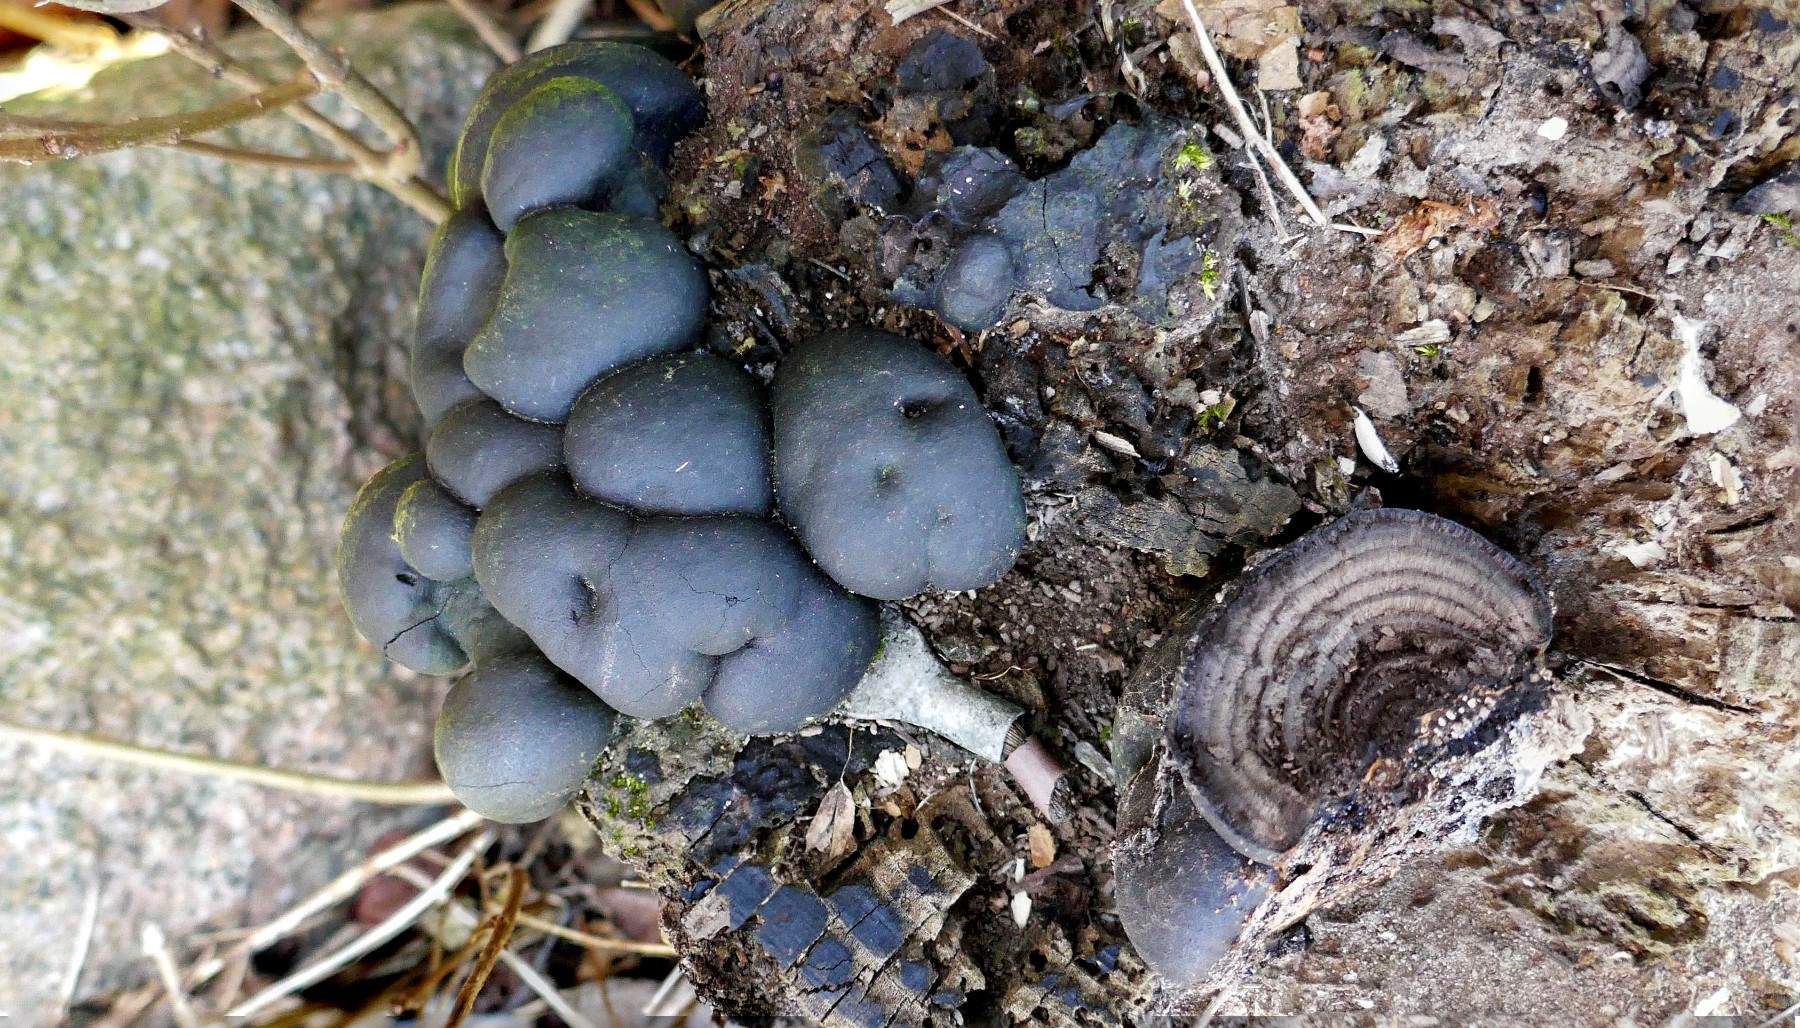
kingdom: Fungi
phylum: Ascomycota
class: Sordariomycetes
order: Xylariales
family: Hypoxylaceae
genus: Daldinia
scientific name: Daldinia concentrica
